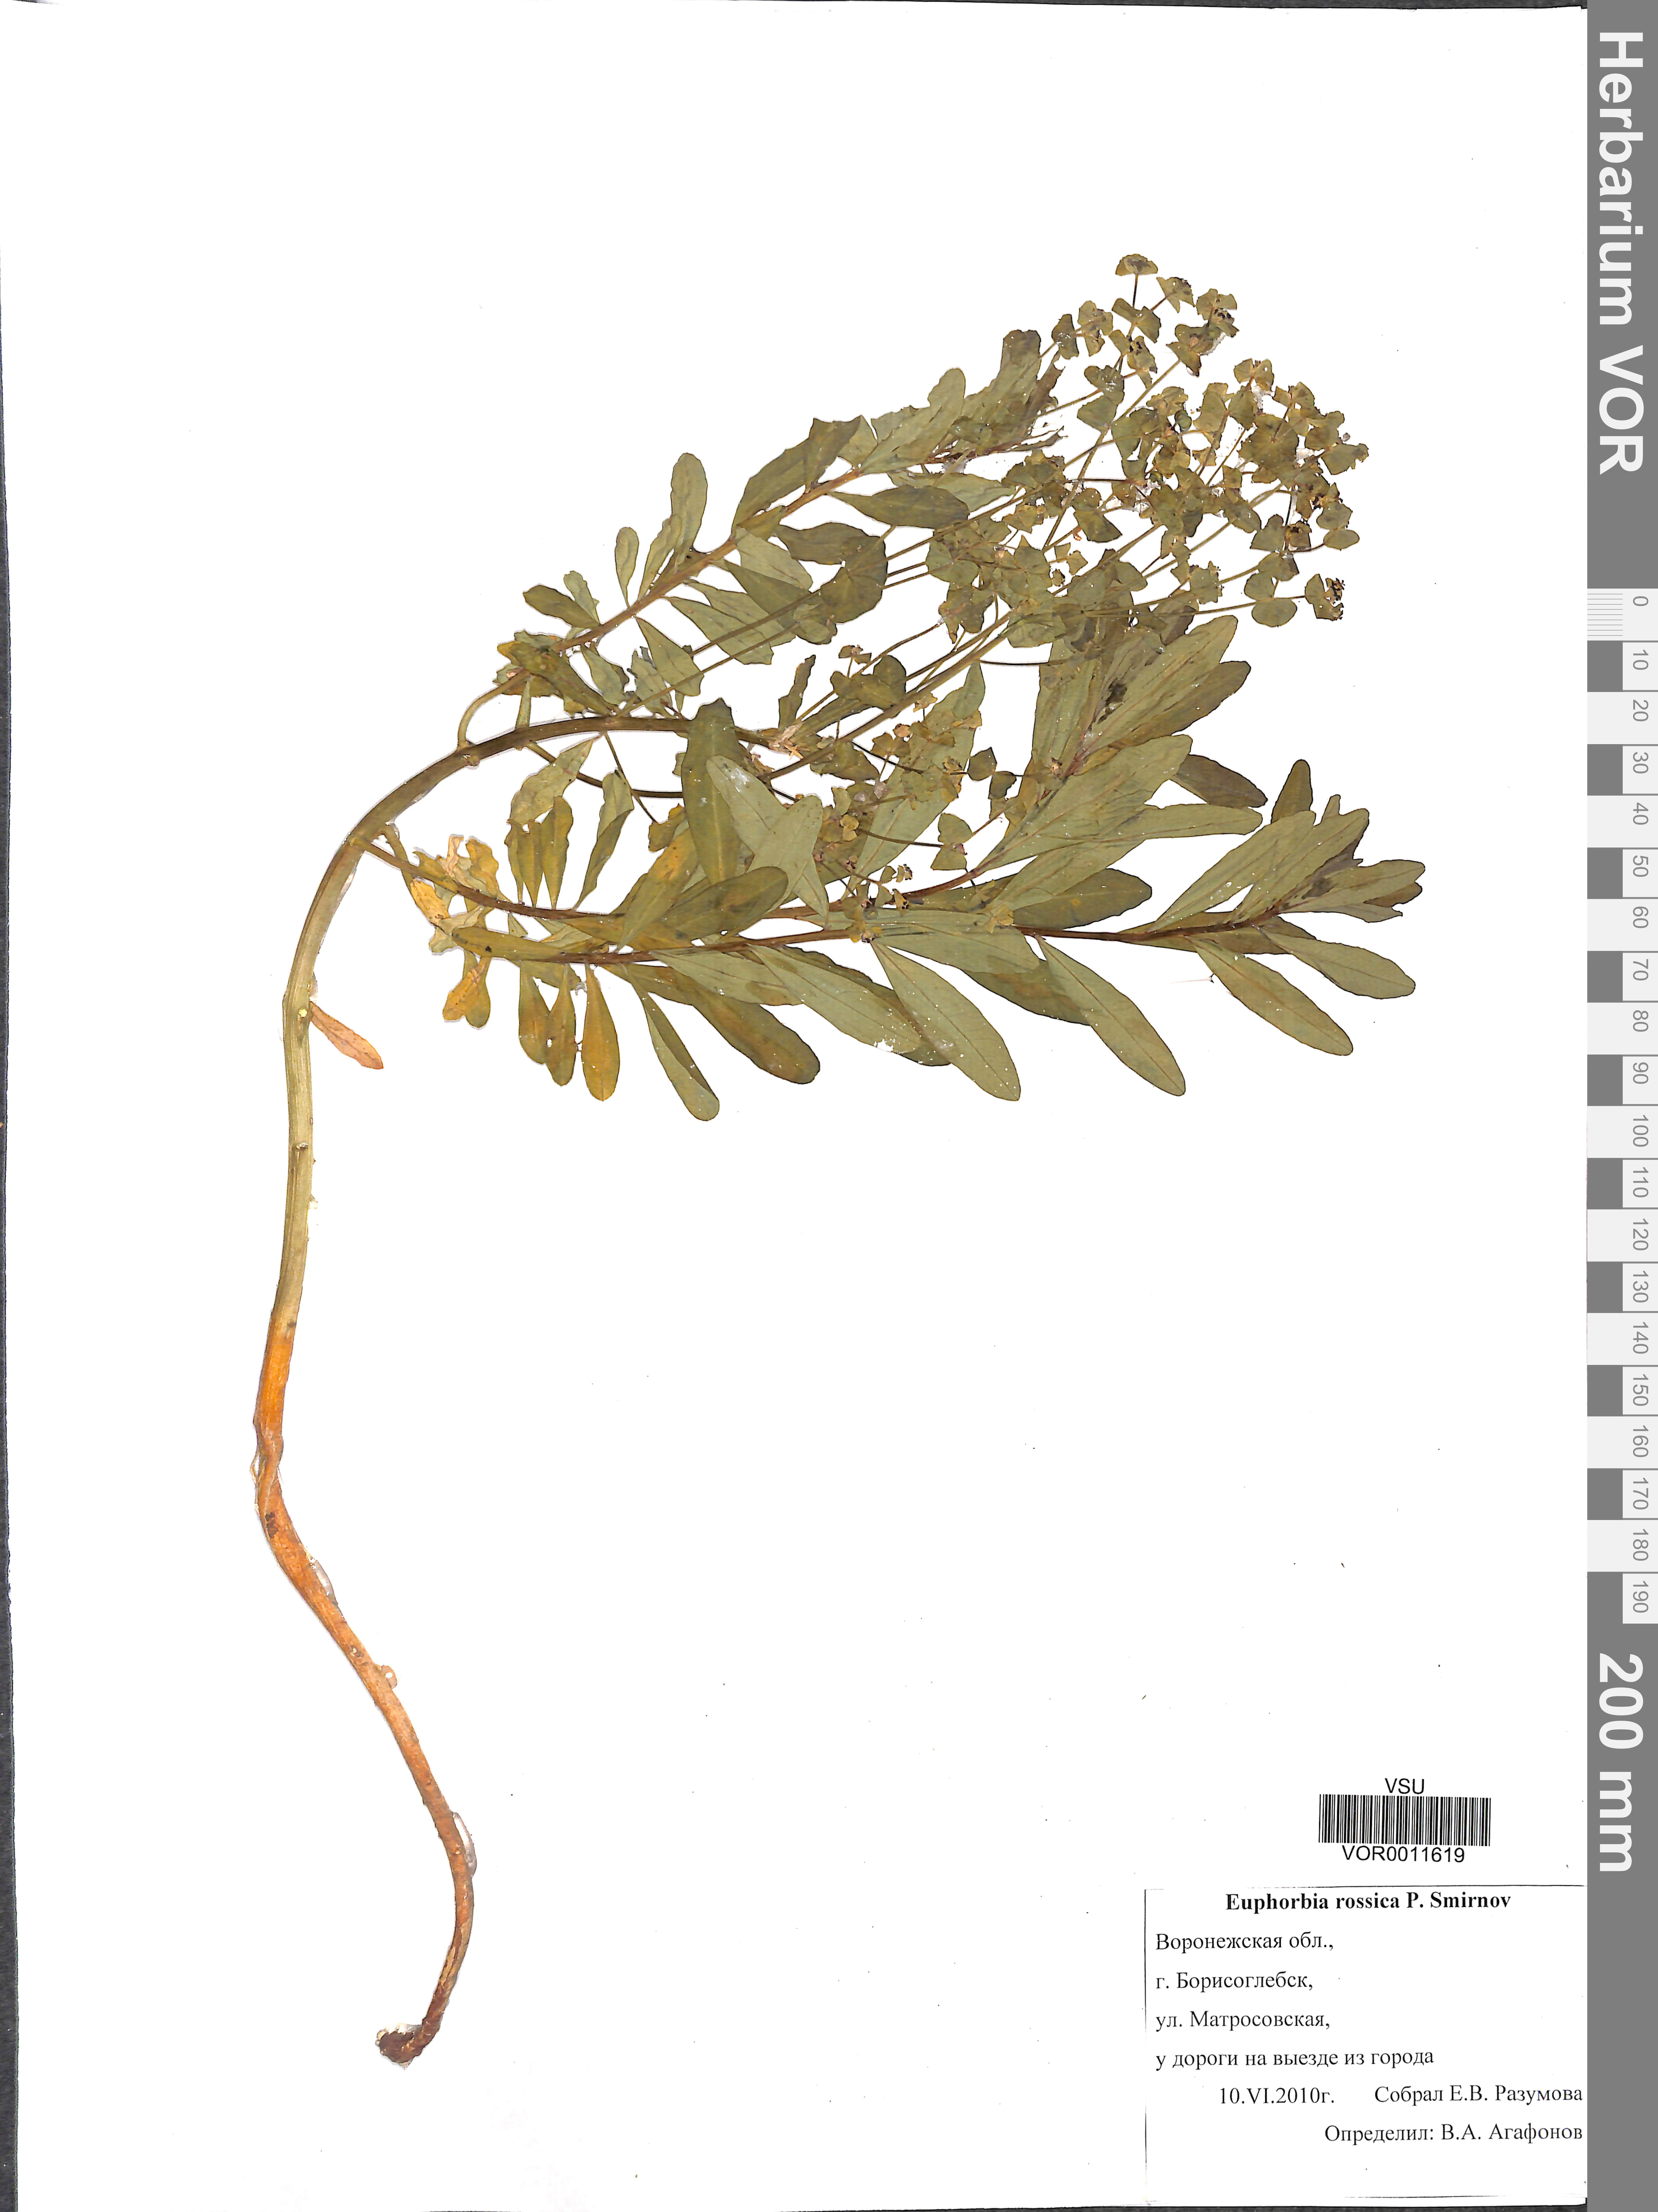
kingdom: Plantae
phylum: Tracheophyta
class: Magnoliopsida
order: Malpighiales
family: Euphorbiaceae
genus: Euphorbia
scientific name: Euphorbia esula
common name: Leafy spurge
